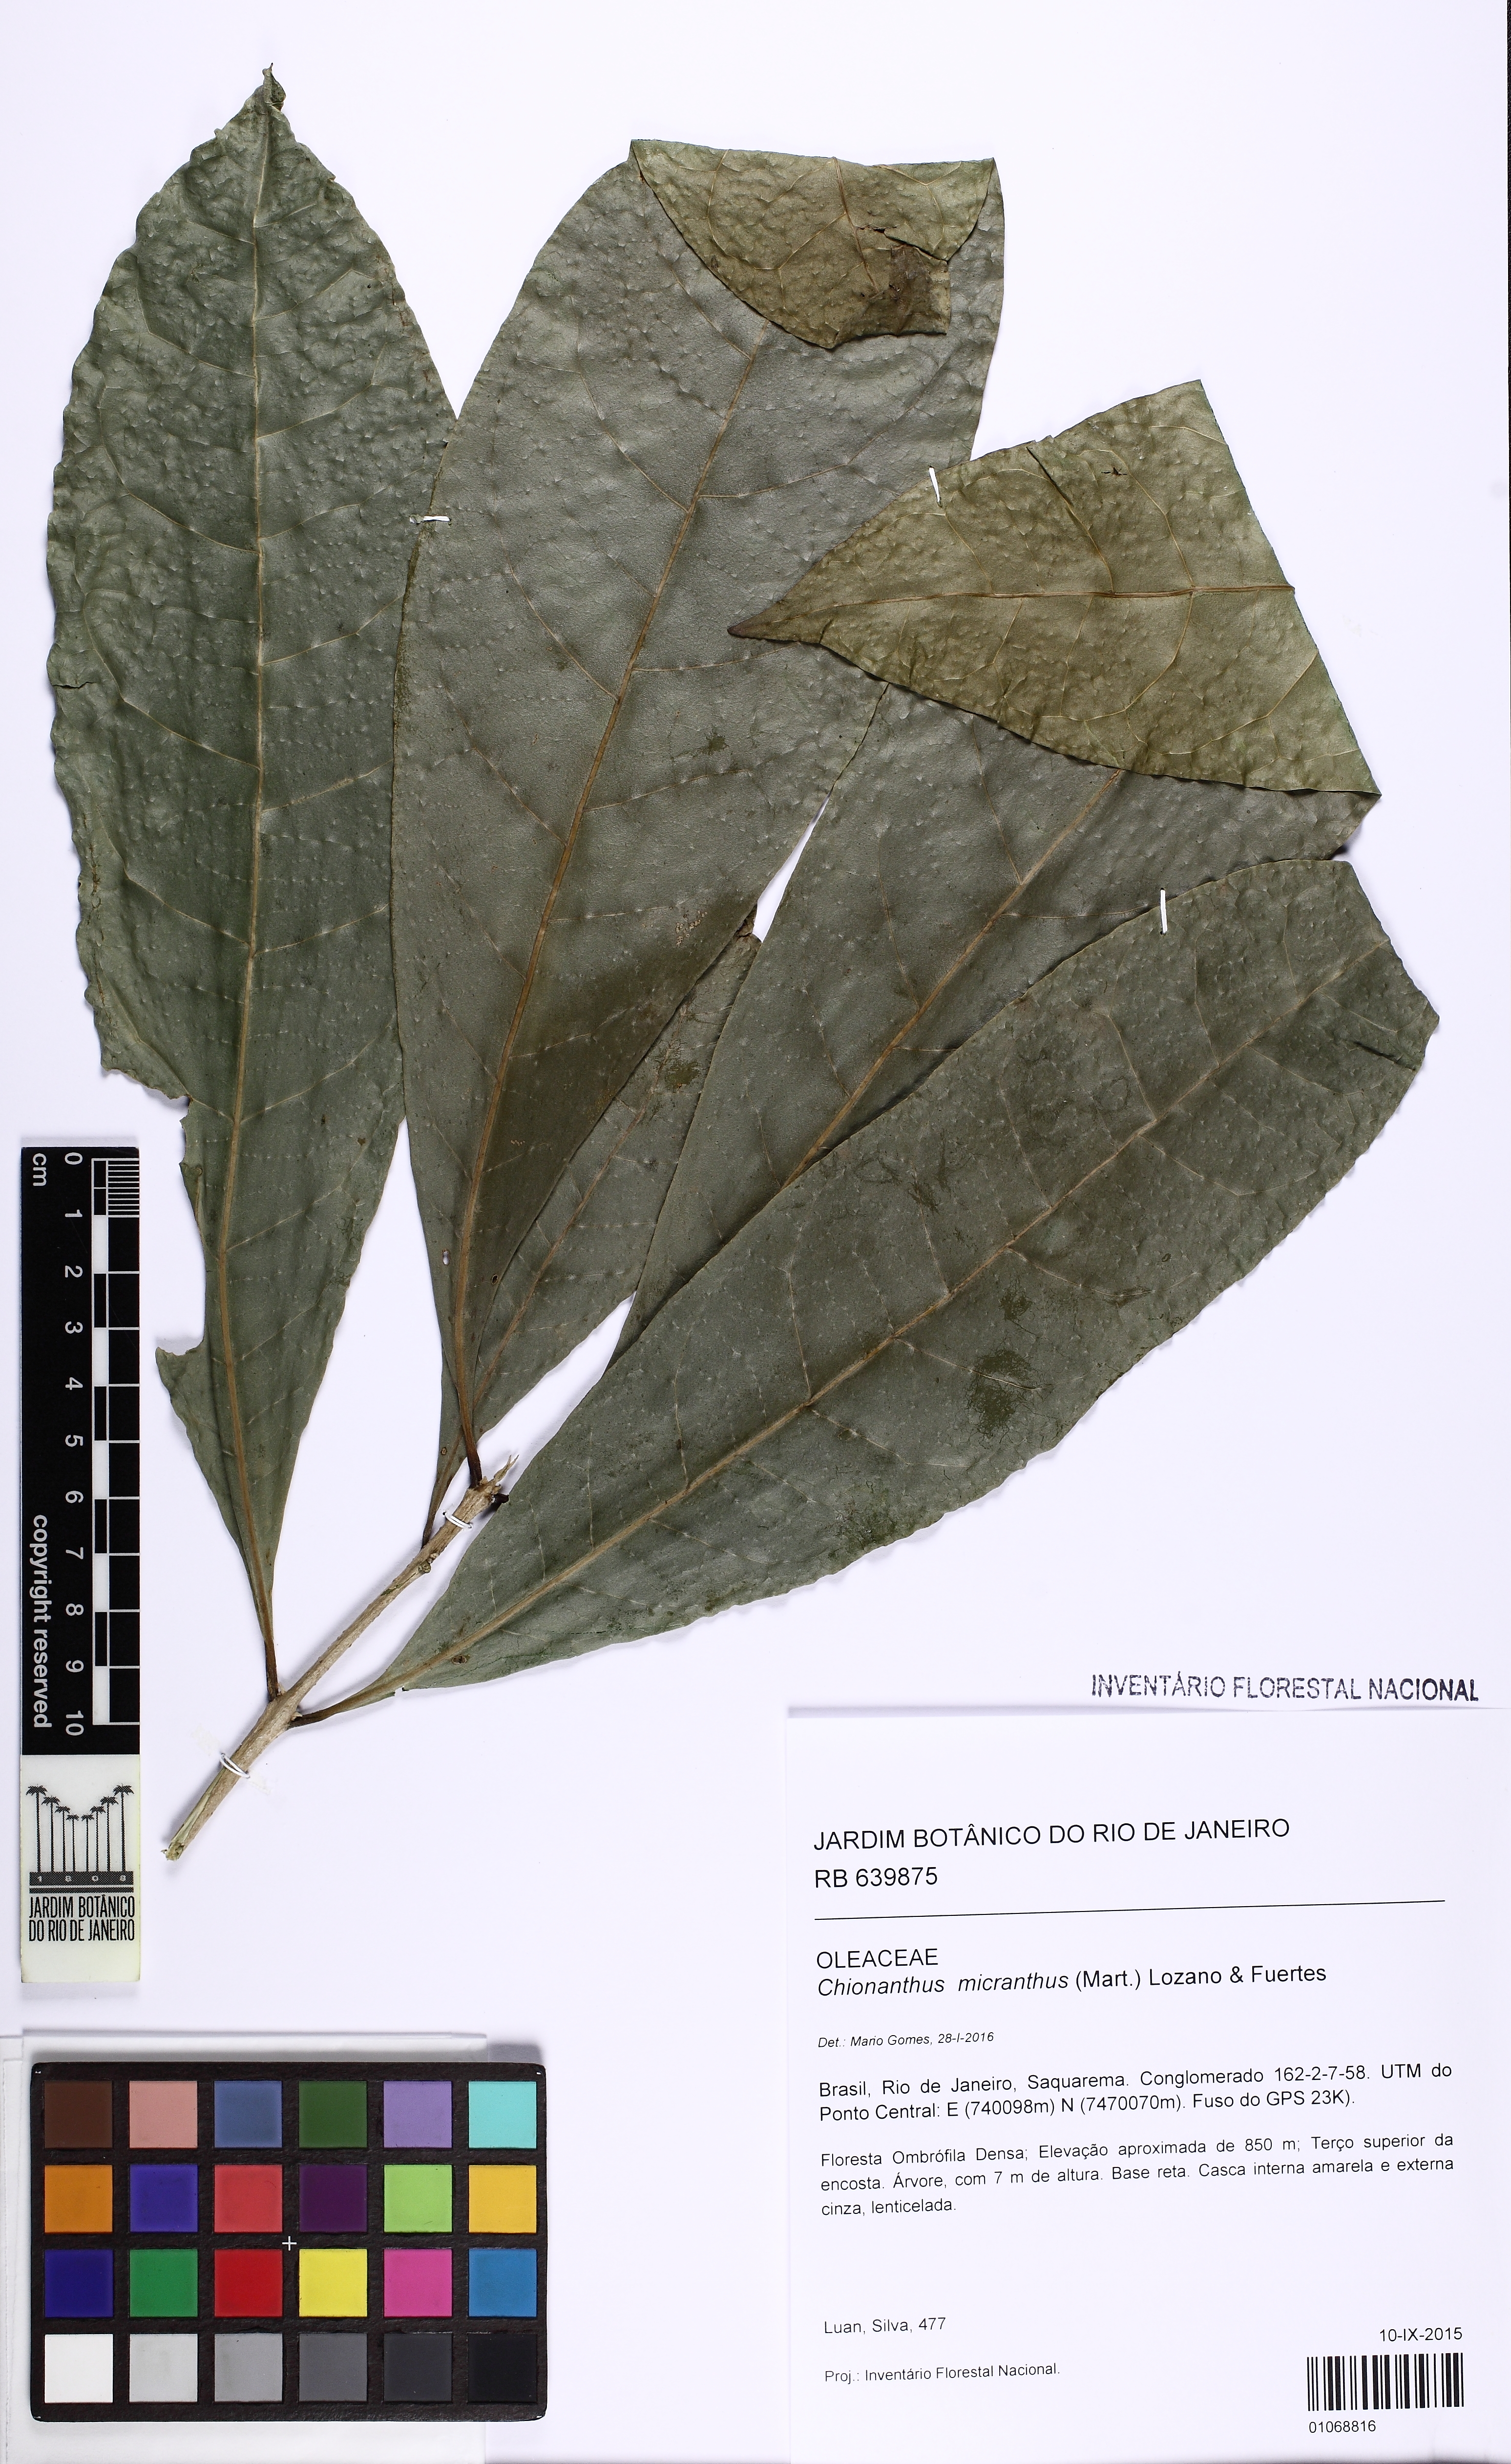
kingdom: Plantae
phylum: Tracheophyta
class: Magnoliopsida
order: Lamiales
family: Oleaceae
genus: Chionanthus
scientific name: Chionanthus micranthus
